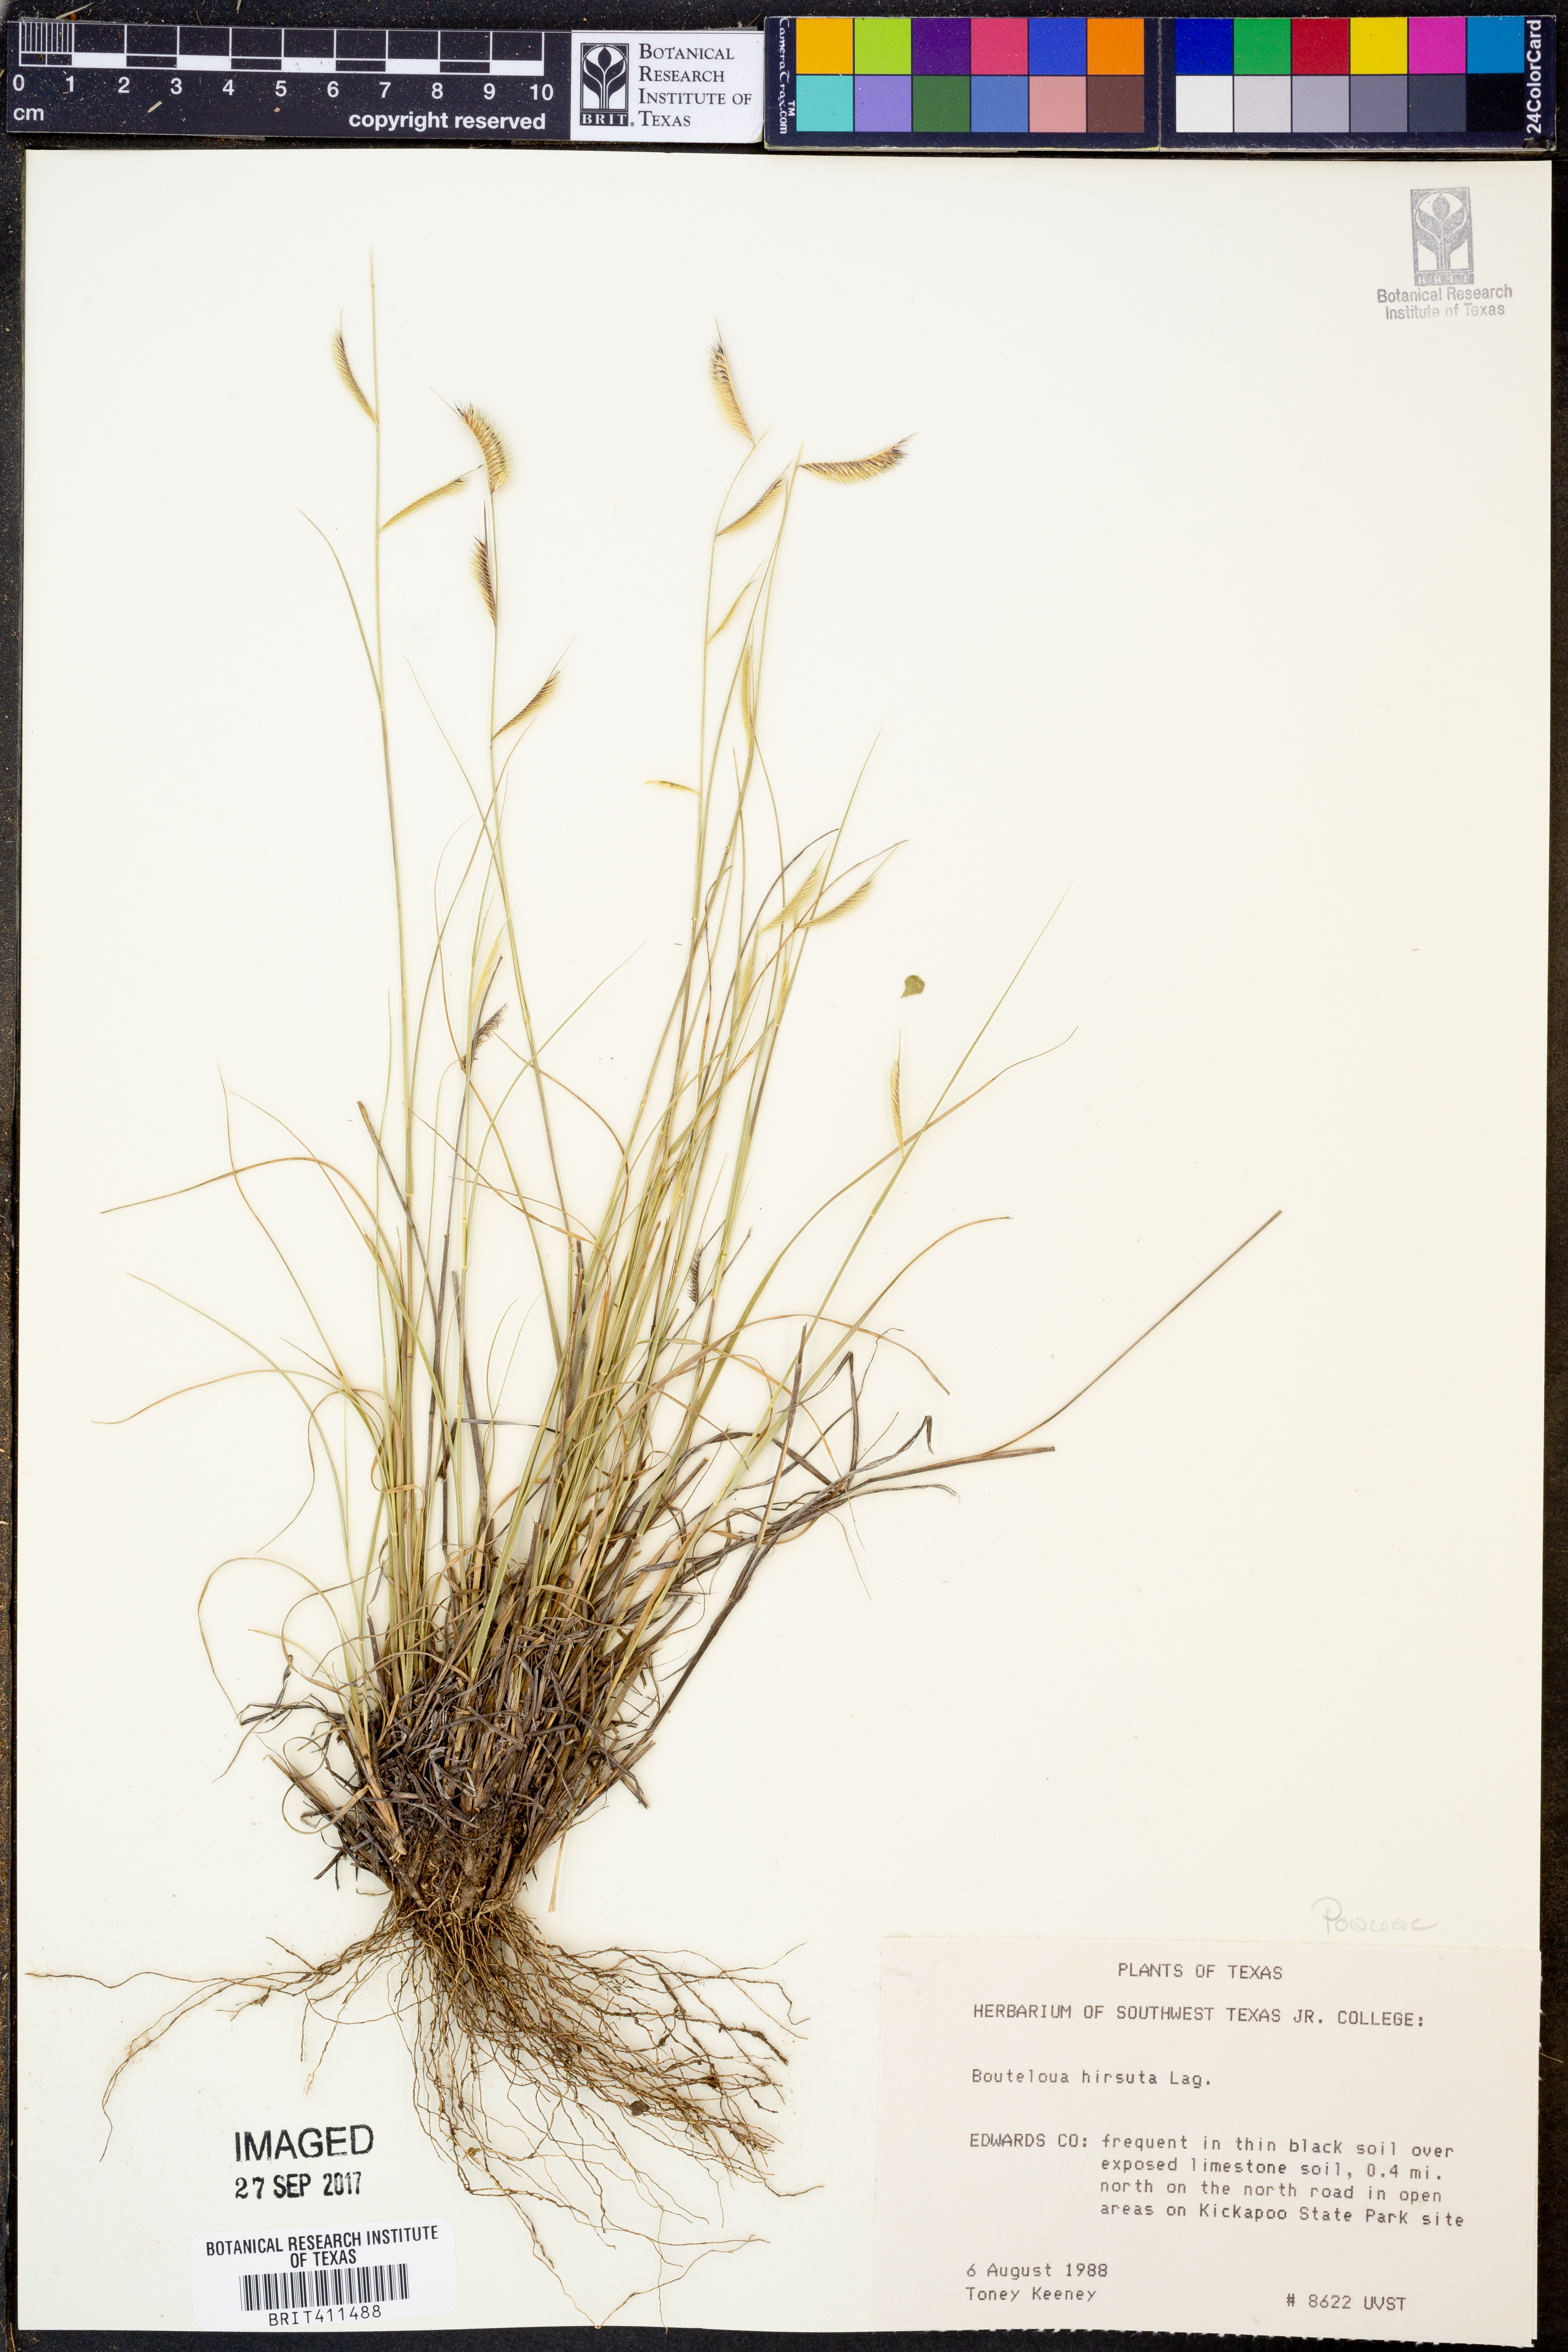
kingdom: Plantae
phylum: Tracheophyta
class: Liliopsida
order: Poales
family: Poaceae
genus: Bouteloua
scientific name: Bouteloua hirsuta
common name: Hairy grama
